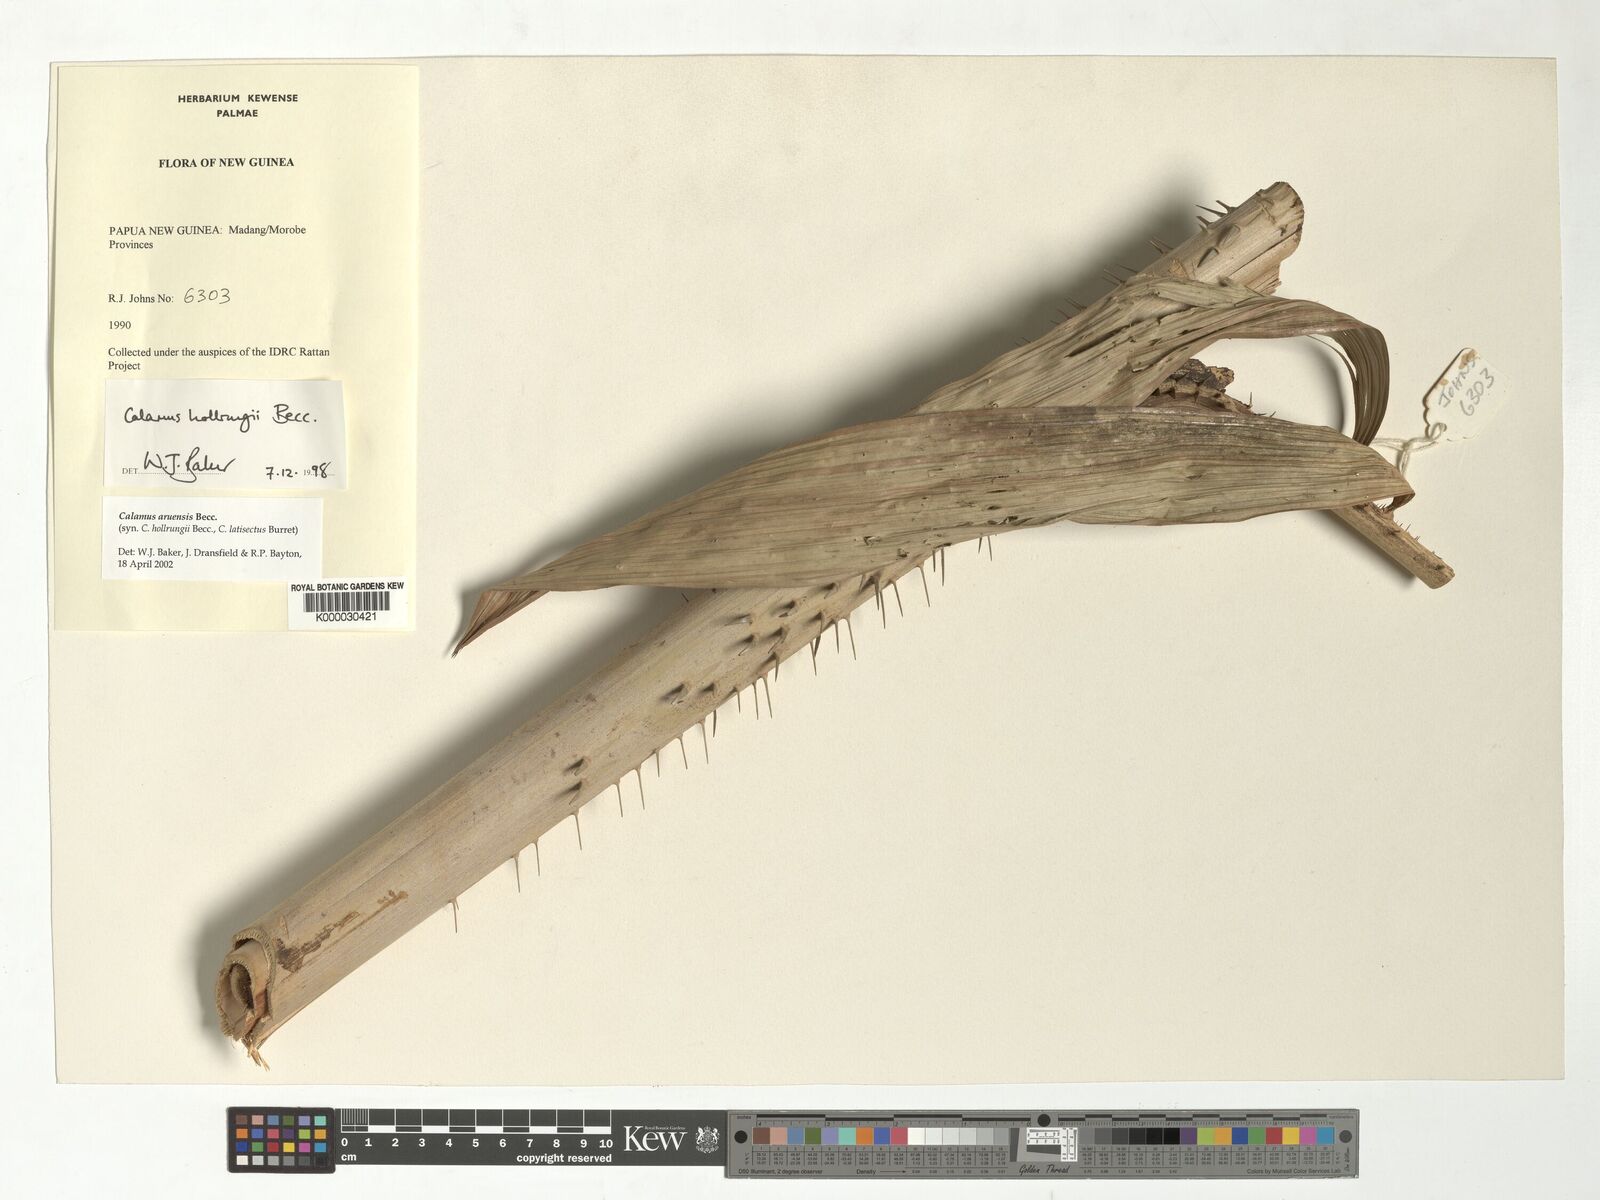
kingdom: Plantae
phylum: Tracheophyta
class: Liliopsida
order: Arecales
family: Arecaceae
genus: Calamus
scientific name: Calamus aruensis
